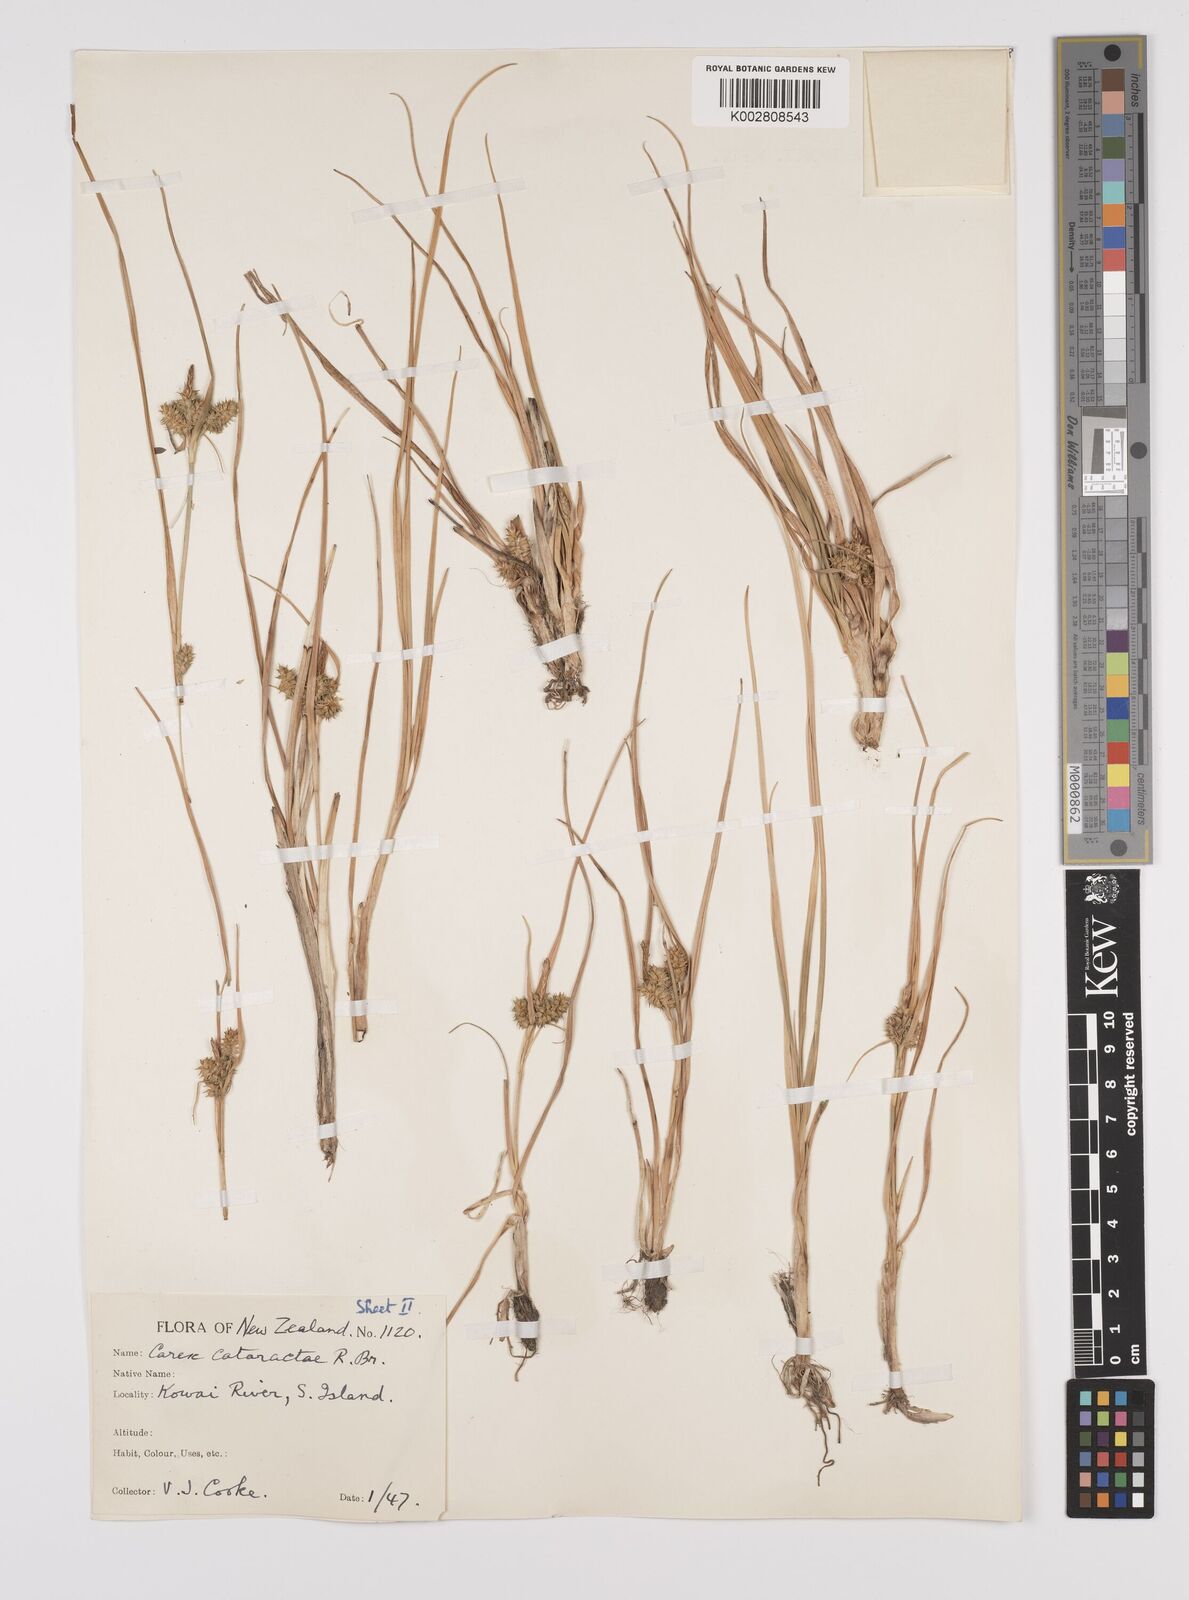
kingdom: Plantae
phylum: Tracheophyta
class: Liliopsida
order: Poales
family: Cyperaceae
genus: Carex
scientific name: Carex demissa
